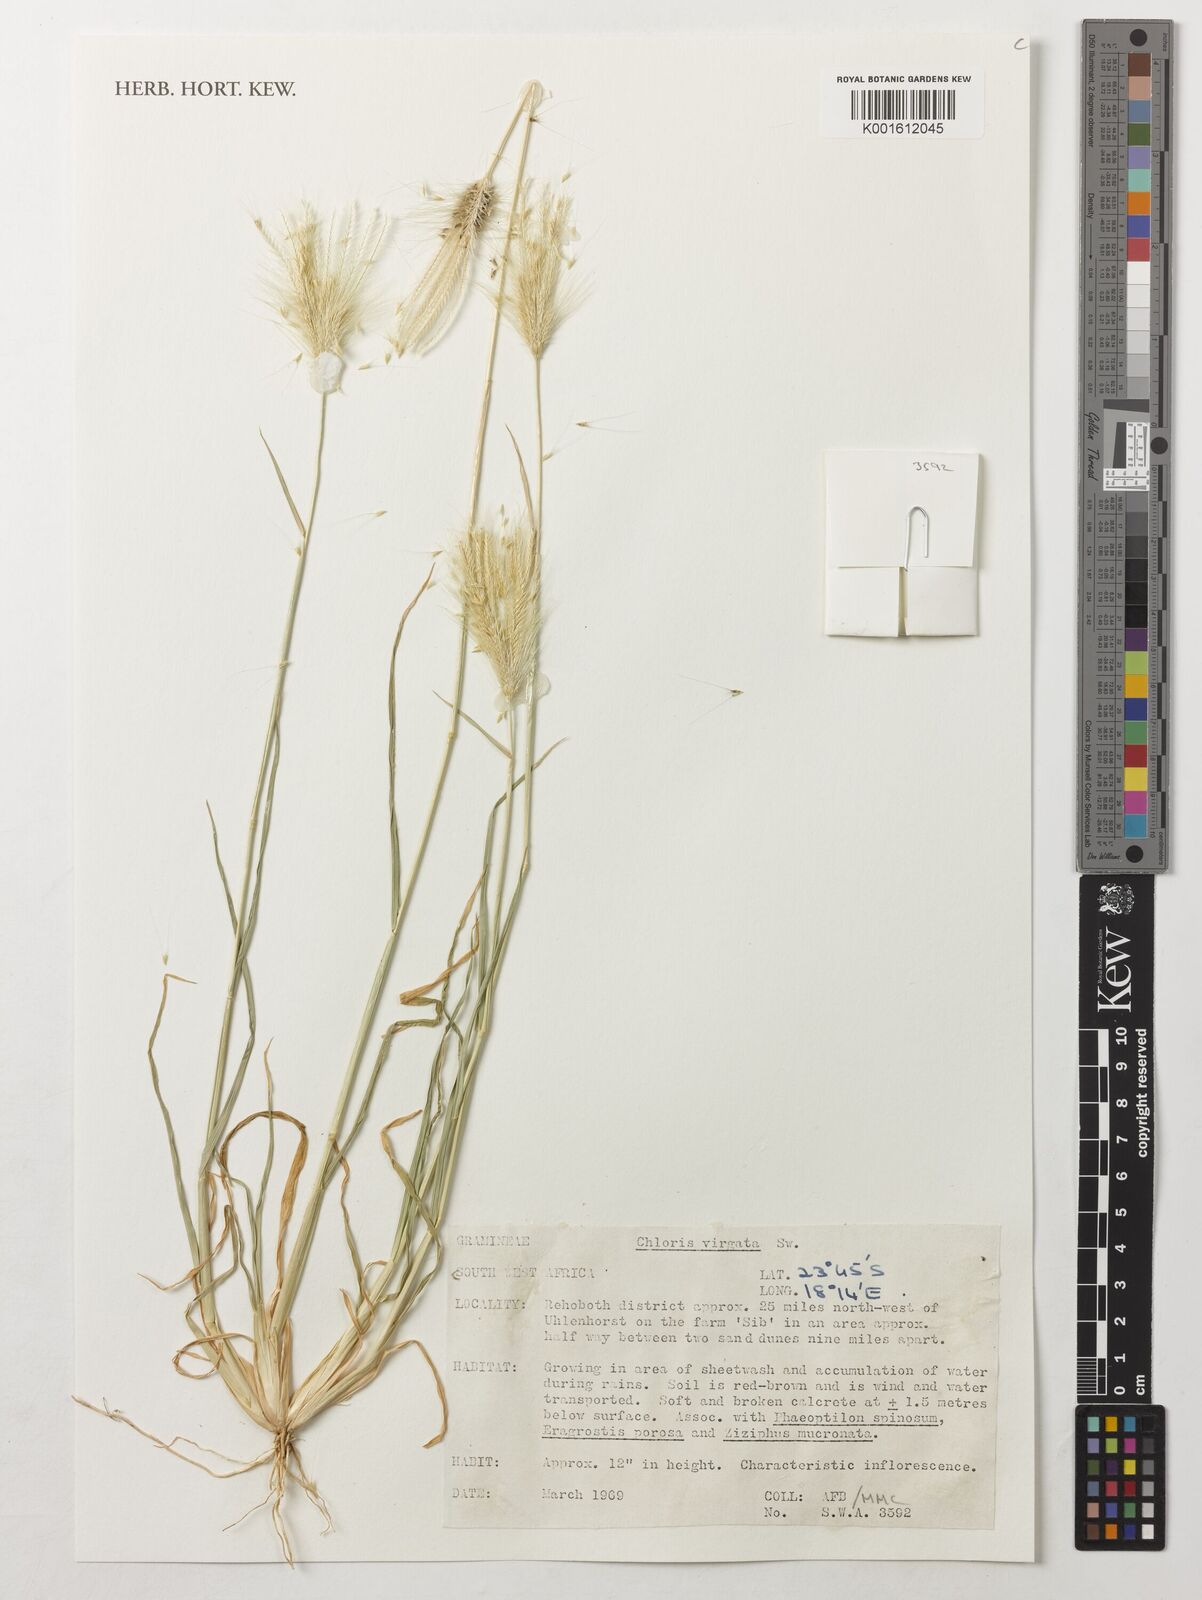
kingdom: Plantae
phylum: Tracheophyta
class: Liliopsida
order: Poales
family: Poaceae
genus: Chloris
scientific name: Chloris virgata
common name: Feathery rhodes-grass
